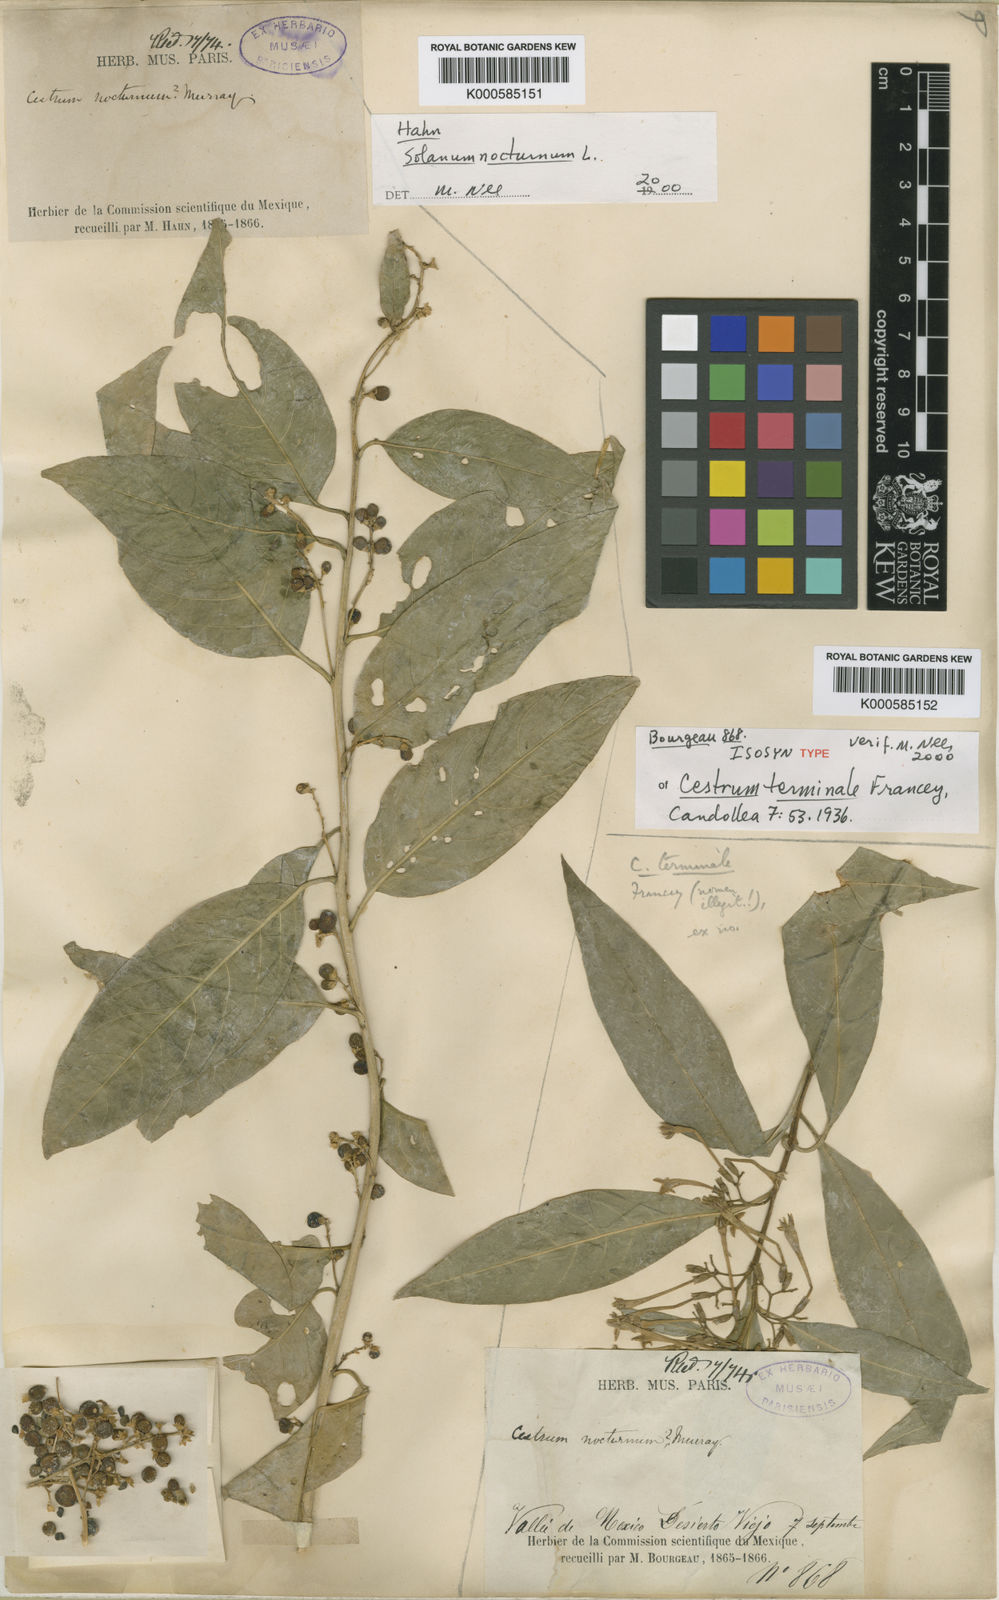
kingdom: Plantae
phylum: Tracheophyta
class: Magnoliopsida
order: Solanales
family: Solanaceae
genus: Cestrum
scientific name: Cestrum thyrsoideum
